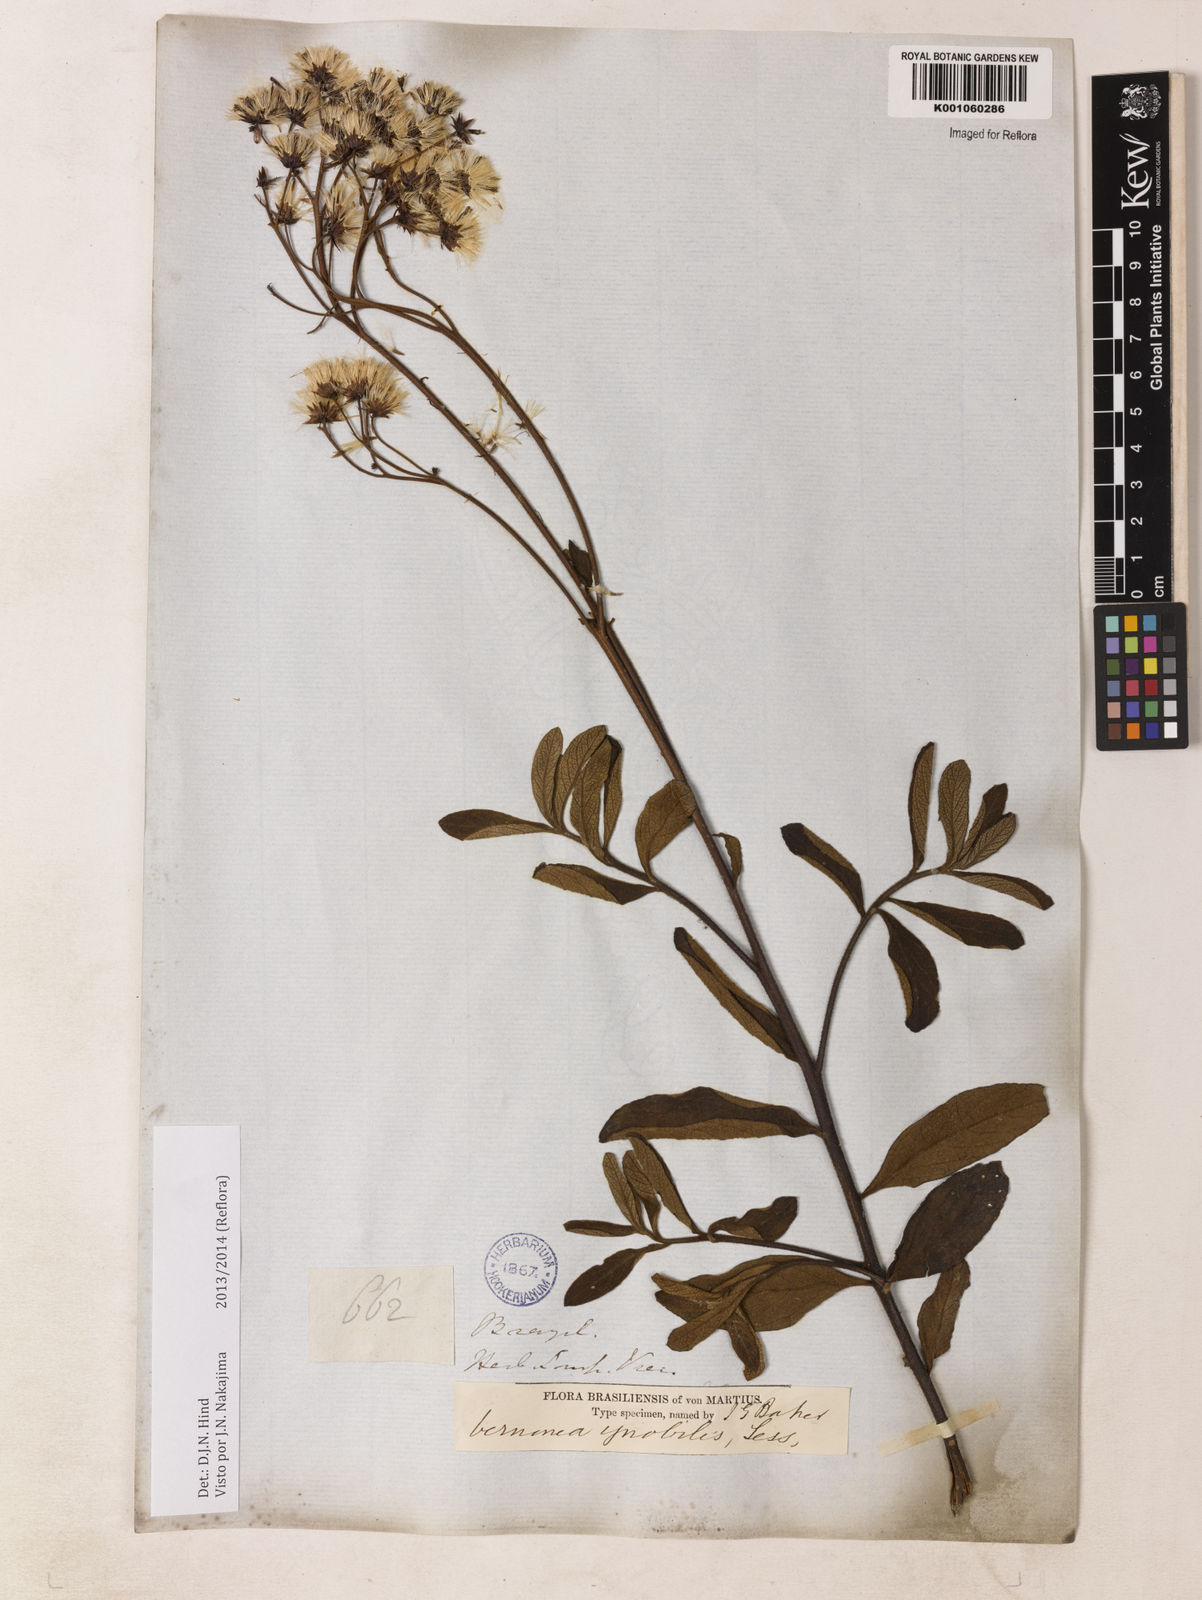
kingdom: Plantae
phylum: Tracheophyta
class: Magnoliopsida
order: Asterales
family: Asteraceae
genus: Vernonanthura
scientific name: Vernonanthura ignobilis
